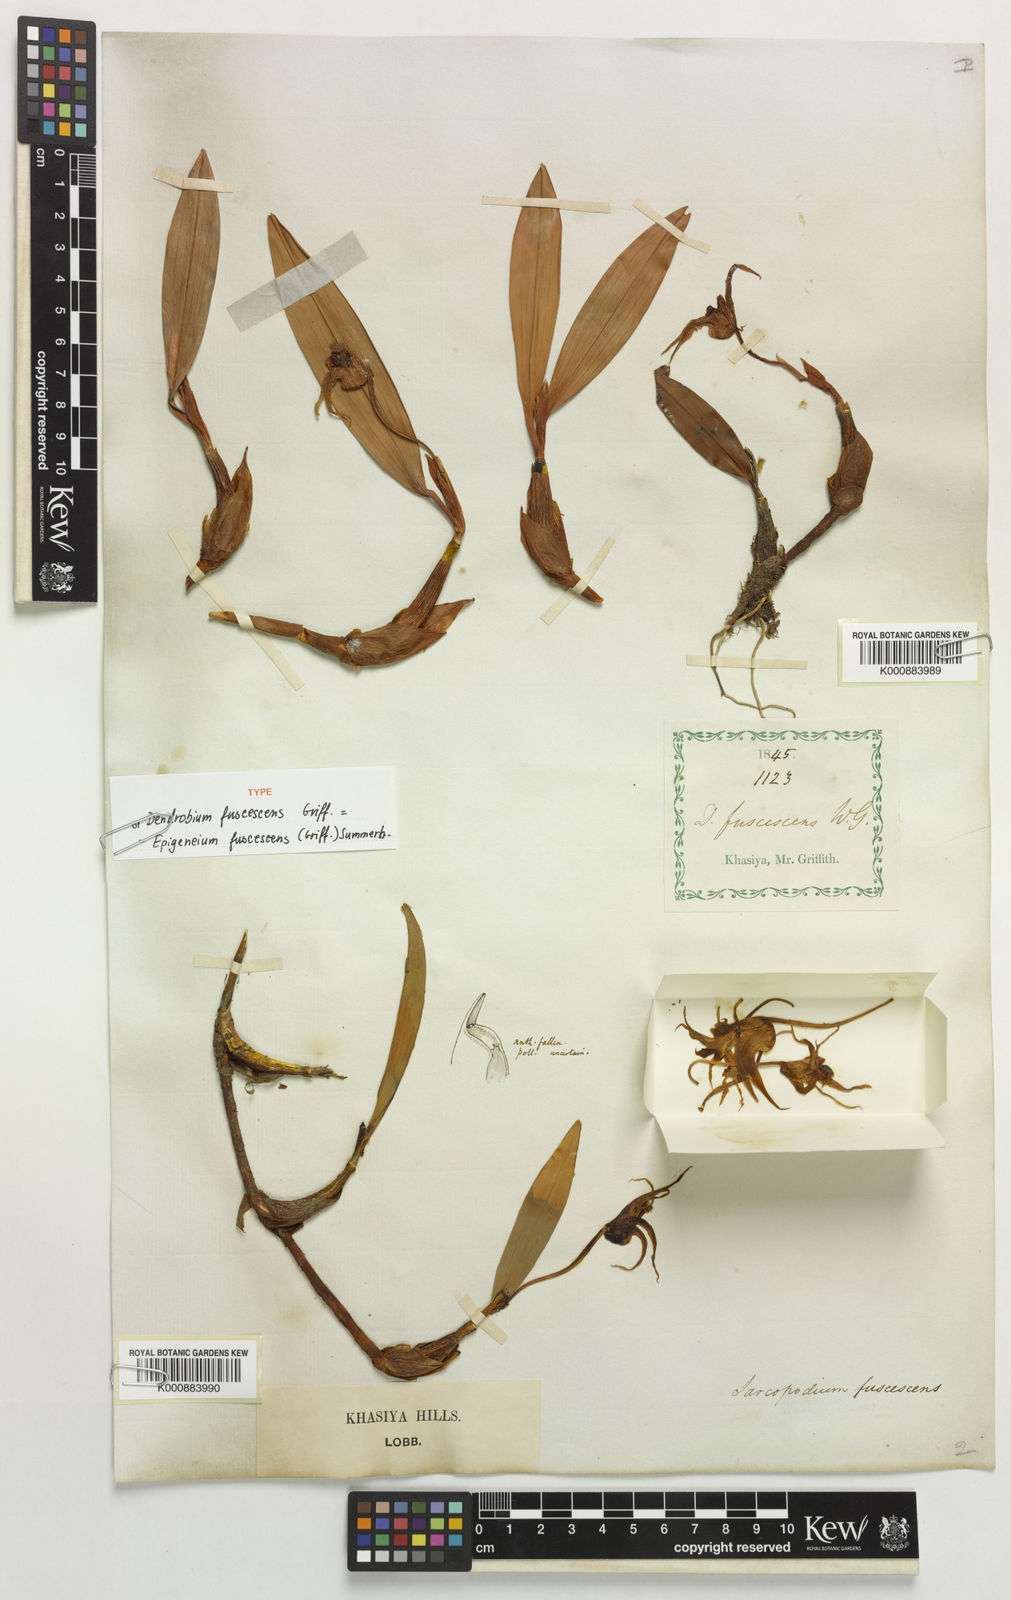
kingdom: Plantae
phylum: Tracheophyta
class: Liliopsida
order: Asparagales
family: Orchidaceae
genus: Dendrobium
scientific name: Dendrobium fuscescens
